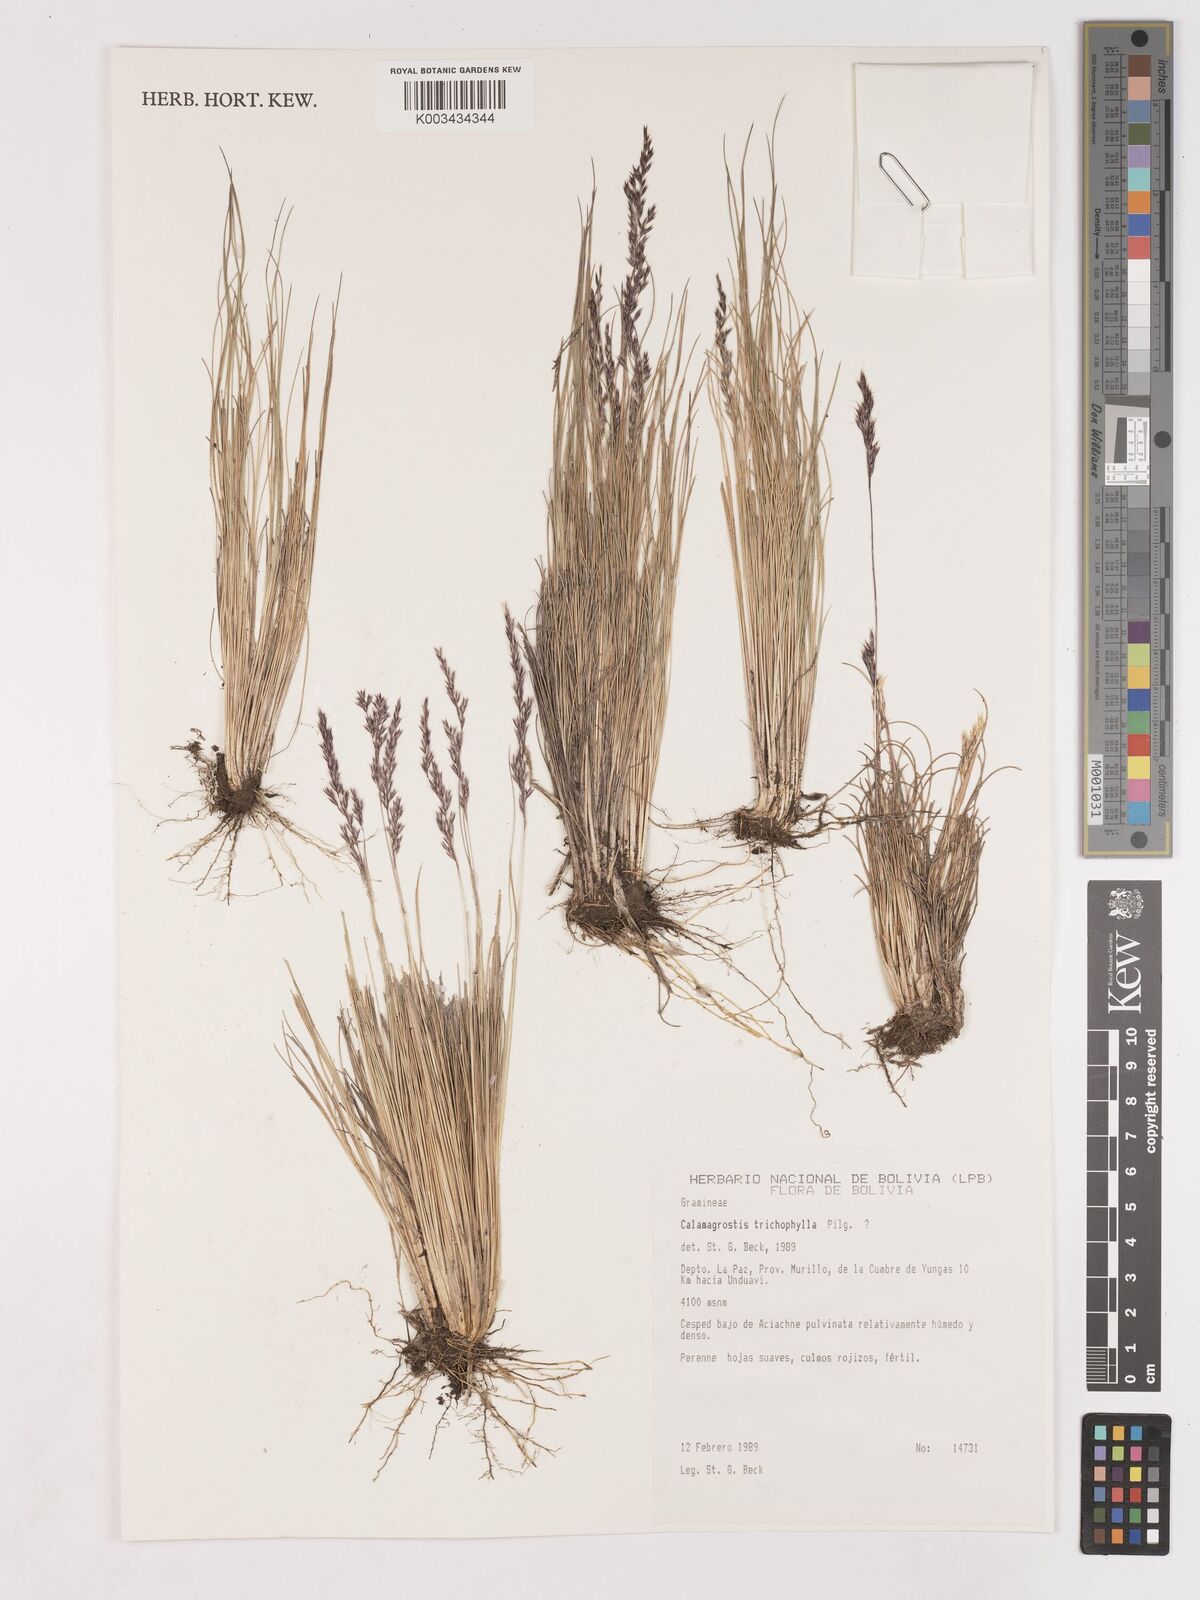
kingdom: Plantae
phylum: Tracheophyta
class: Liliopsida
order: Poales
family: Poaceae
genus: Cinnagrostis
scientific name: Cinnagrostis violacea
